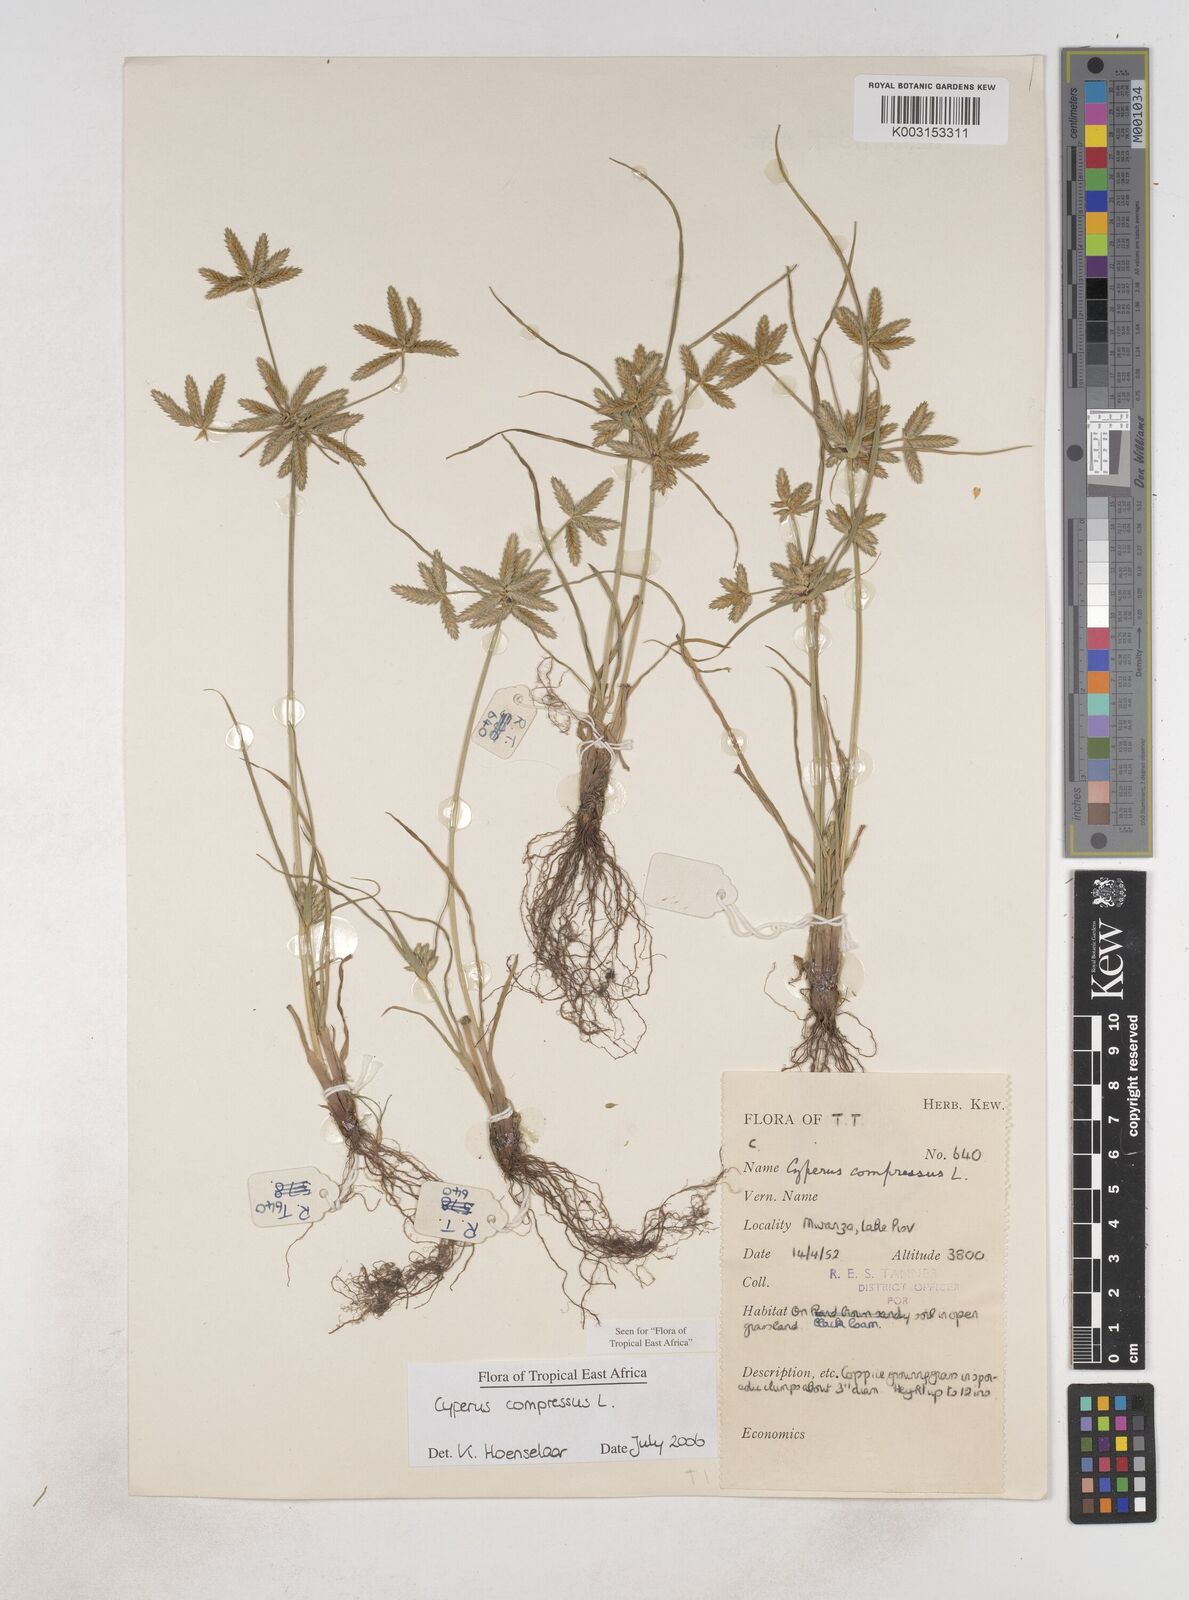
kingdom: Plantae
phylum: Tracheophyta
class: Liliopsida
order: Poales
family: Cyperaceae
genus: Cyperus
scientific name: Cyperus compressus
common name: Poorland flatsedge
